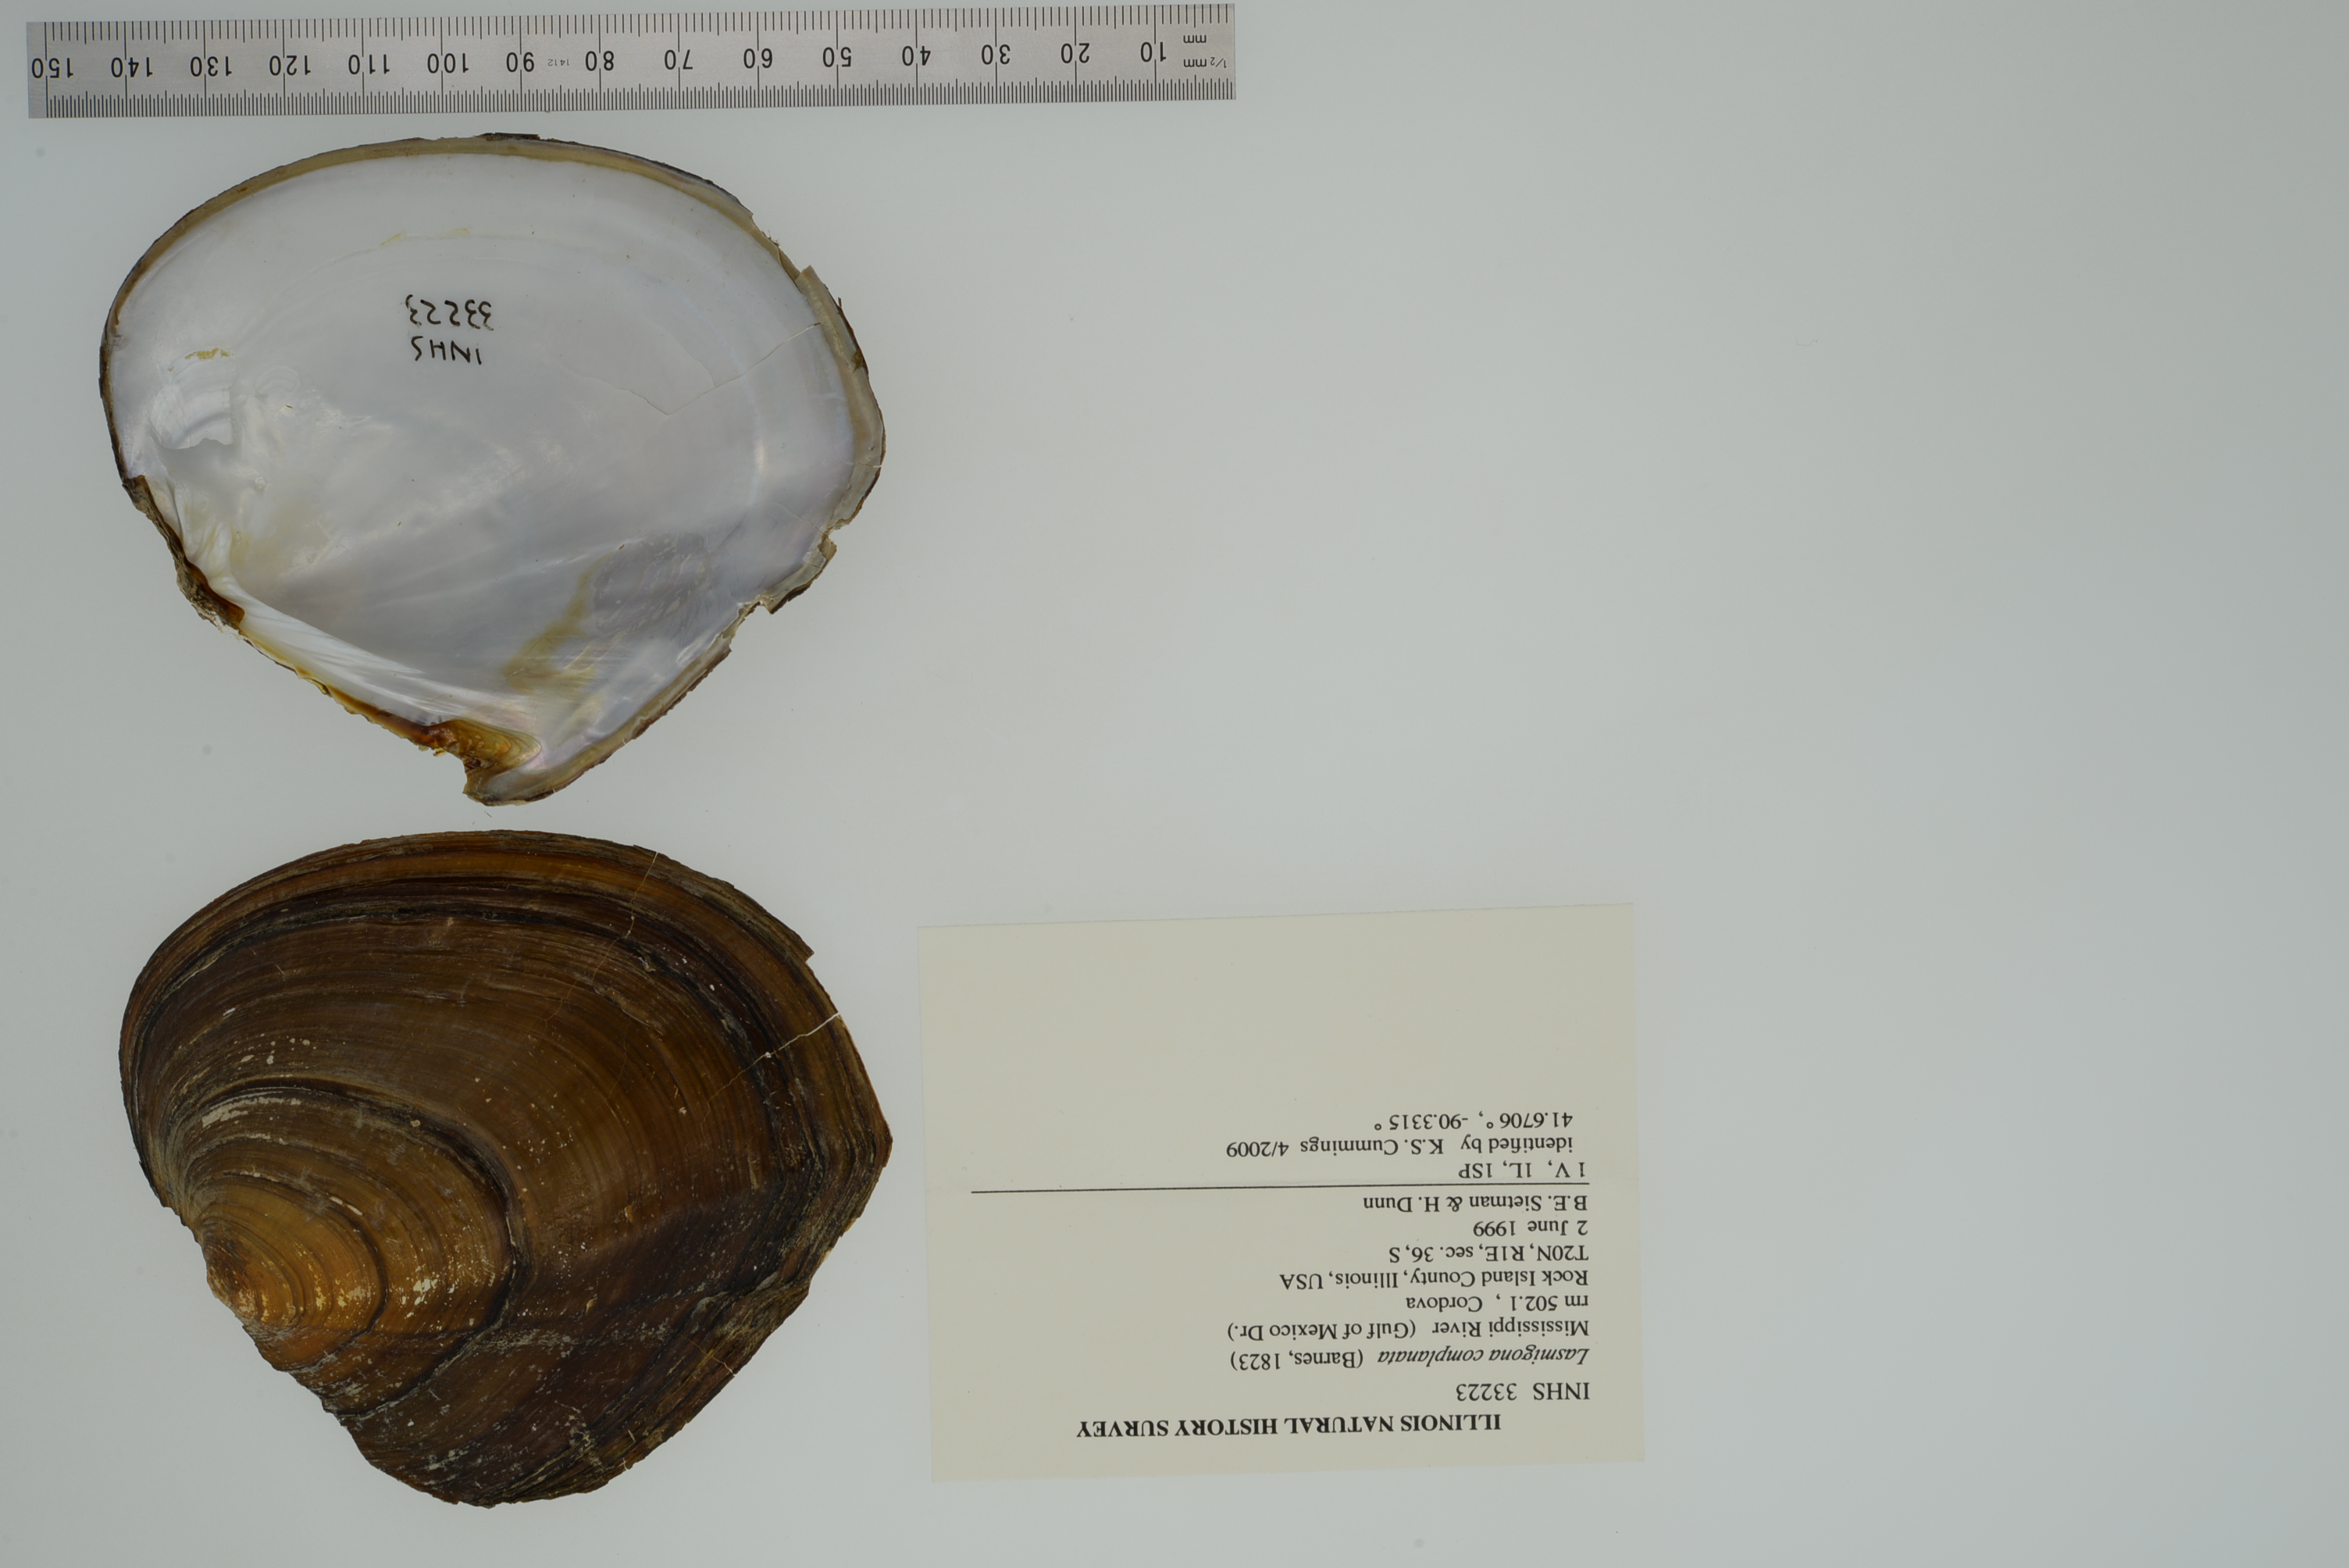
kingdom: Animalia
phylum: Mollusca
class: Bivalvia
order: Unionida
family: Unionidae
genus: Lasmigona
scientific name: Lasmigona complanata
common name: White heelsplitter
